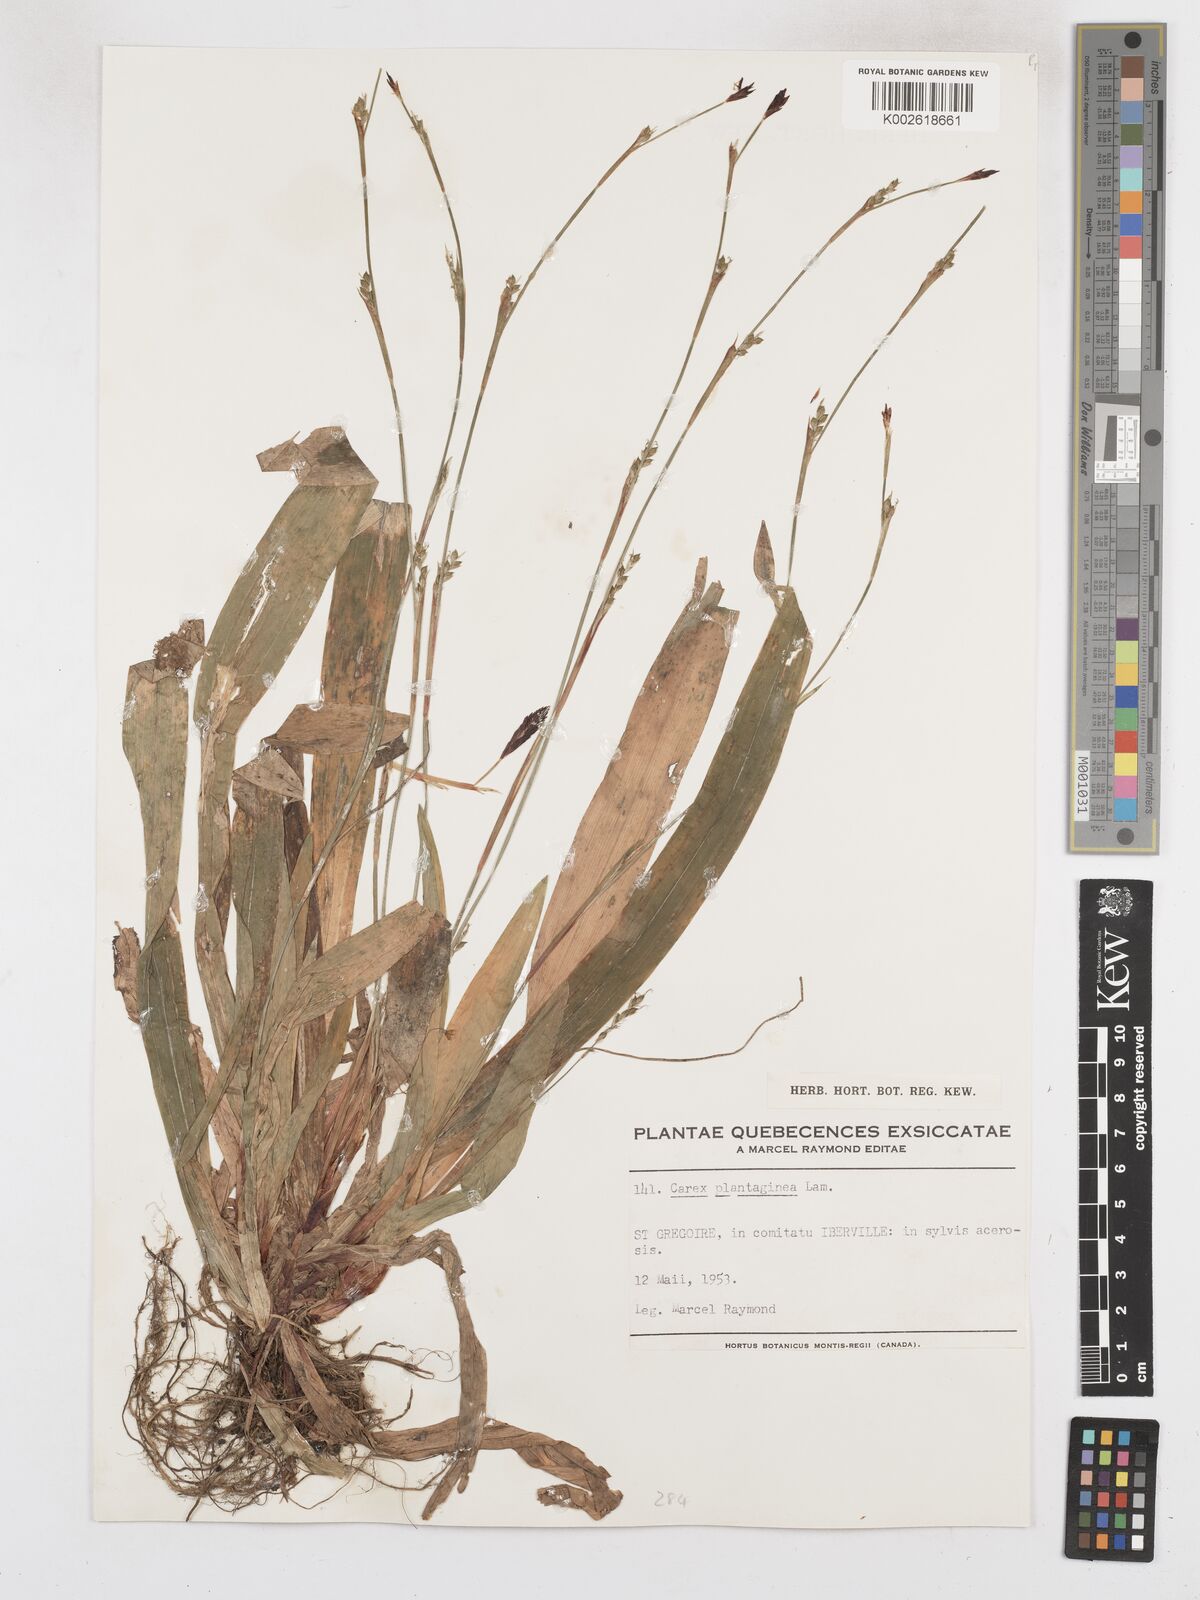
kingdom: Plantae
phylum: Tracheophyta
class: Liliopsida
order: Poales
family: Cyperaceae
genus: Carex
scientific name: Carex plantaginea
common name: Plantain-leaved sedge
